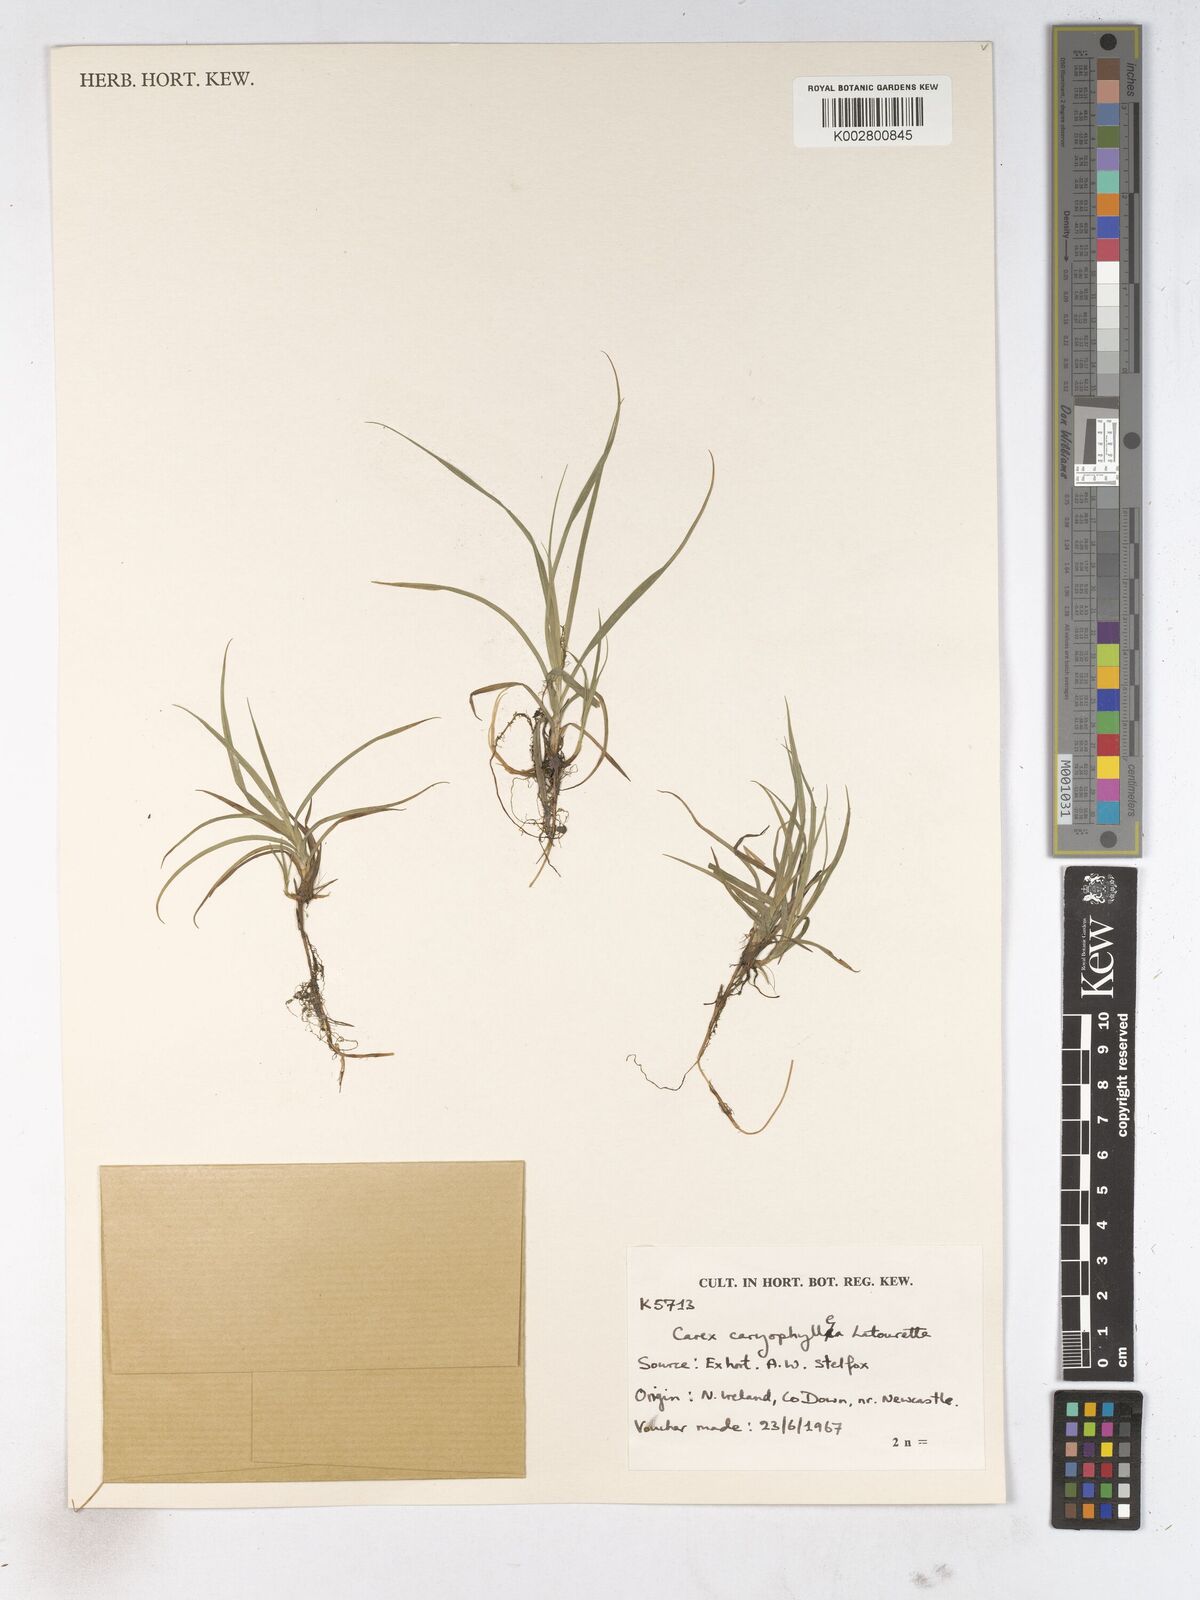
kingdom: Plantae
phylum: Tracheophyta
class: Liliopsida
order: Poales
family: Cyperaceae
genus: Carex
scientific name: Carex caryophyllea
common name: Spring sedge
